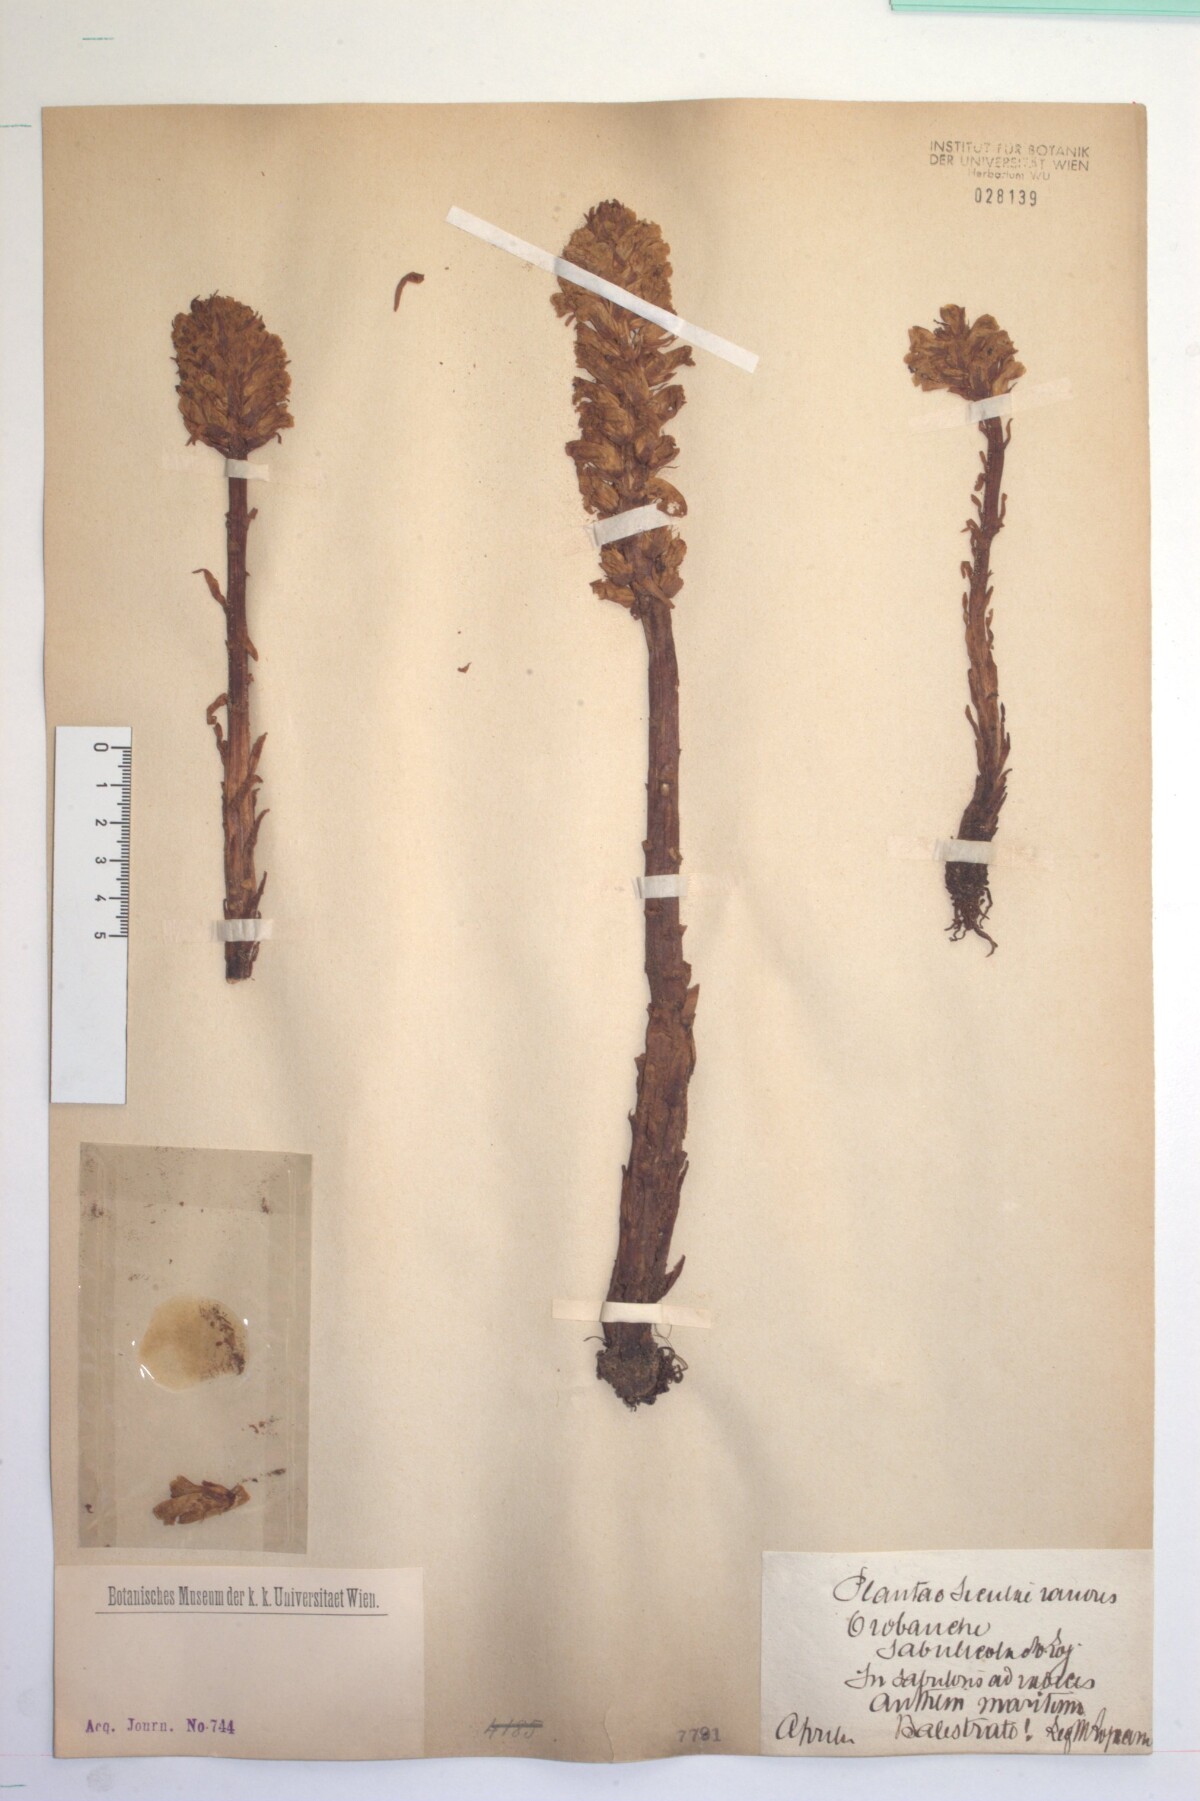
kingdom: Plantae
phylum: Tracheophyta
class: Magnoliopsida
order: Lamiales
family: Orobanchaceae
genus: Orobanche
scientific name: Orobanche litorea
